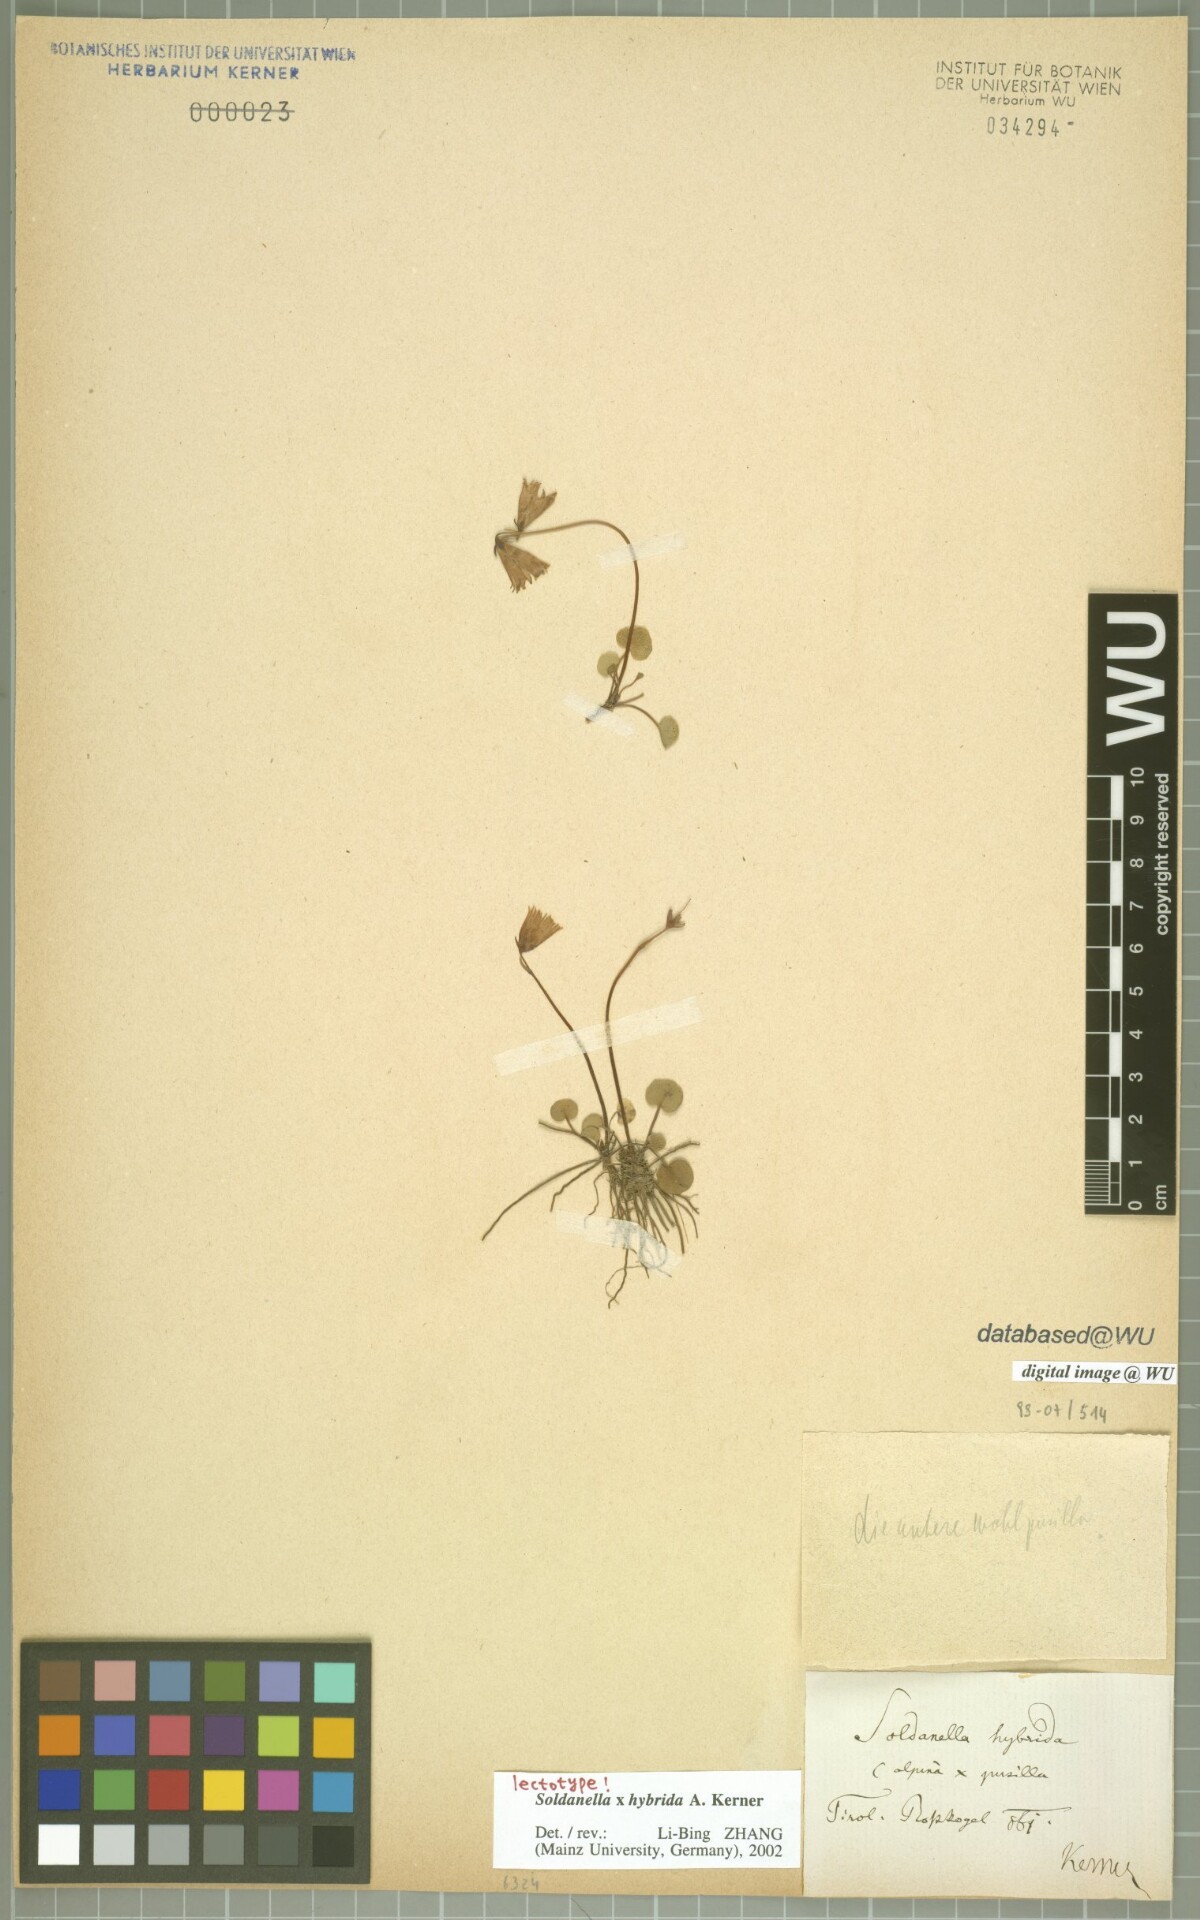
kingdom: Plantae
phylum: Tracheophyta
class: Magnoliopsida
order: Ericales
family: Primulaceae
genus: Soldanella
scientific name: Soldanella hybrida
